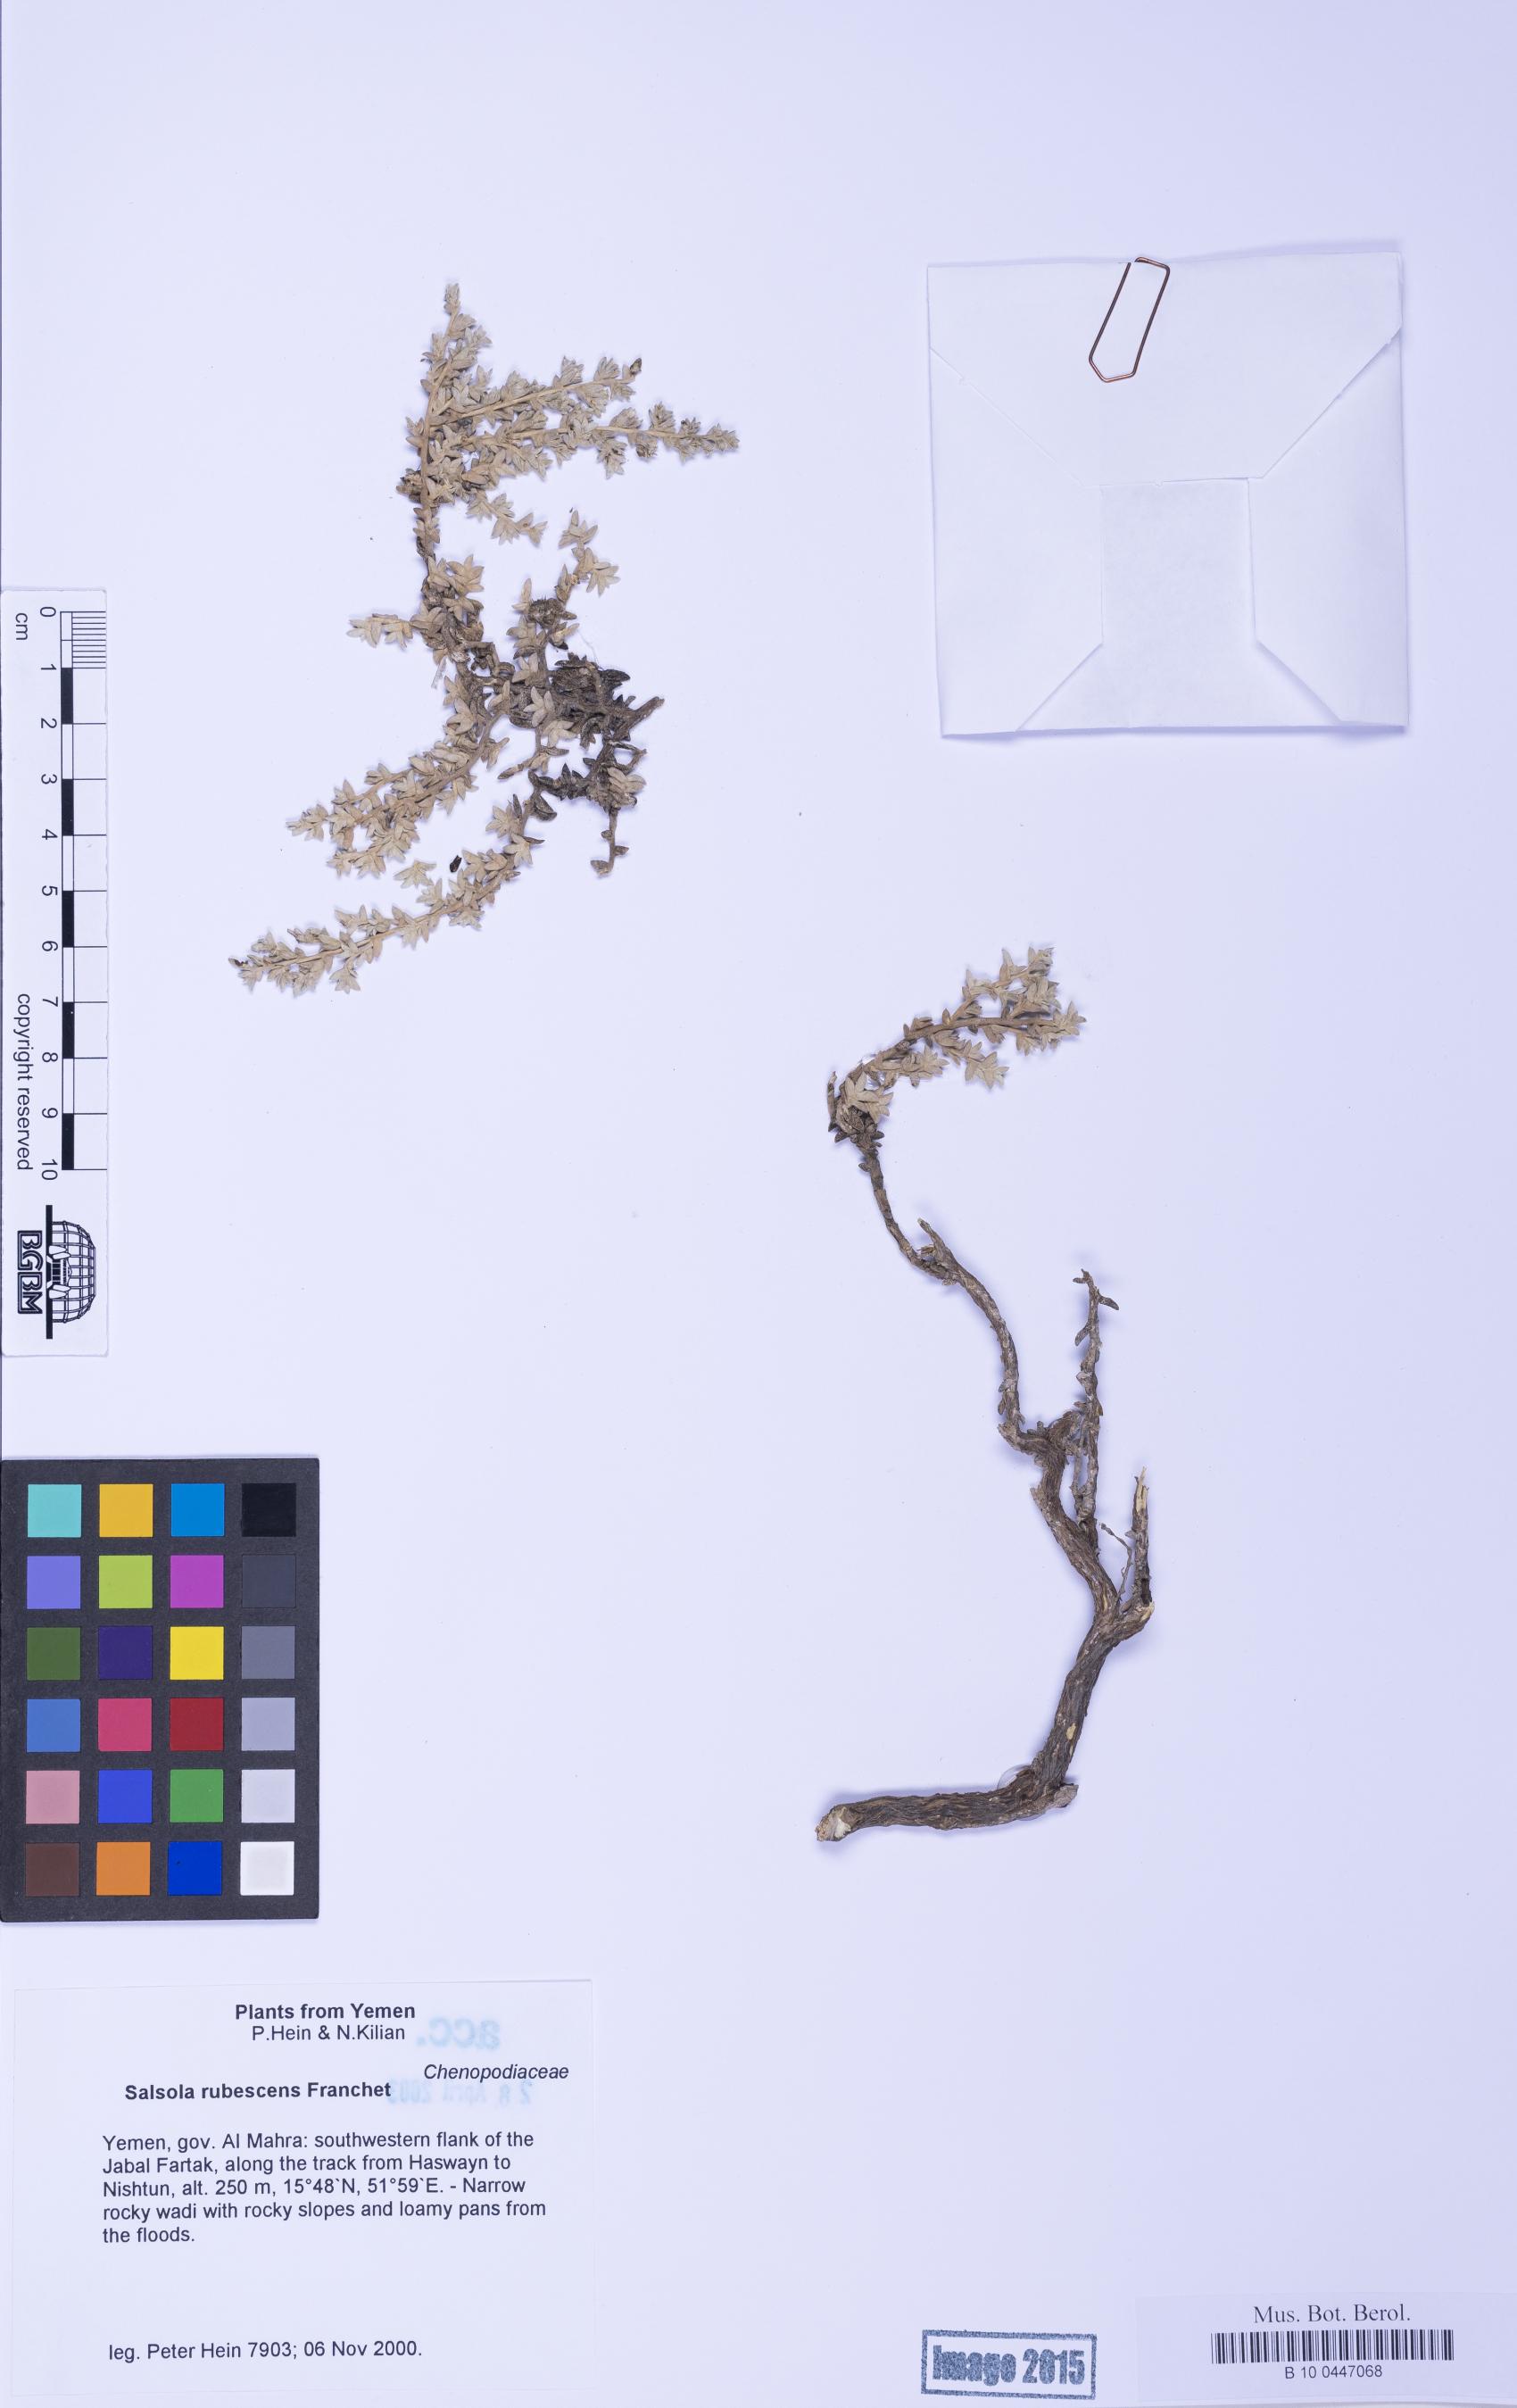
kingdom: Plantae
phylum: Tracheophyta
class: Magnoliopsida
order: Caryophyllales
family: Amaranthaceae
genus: Kaviria
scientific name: Kaviria rubescens
